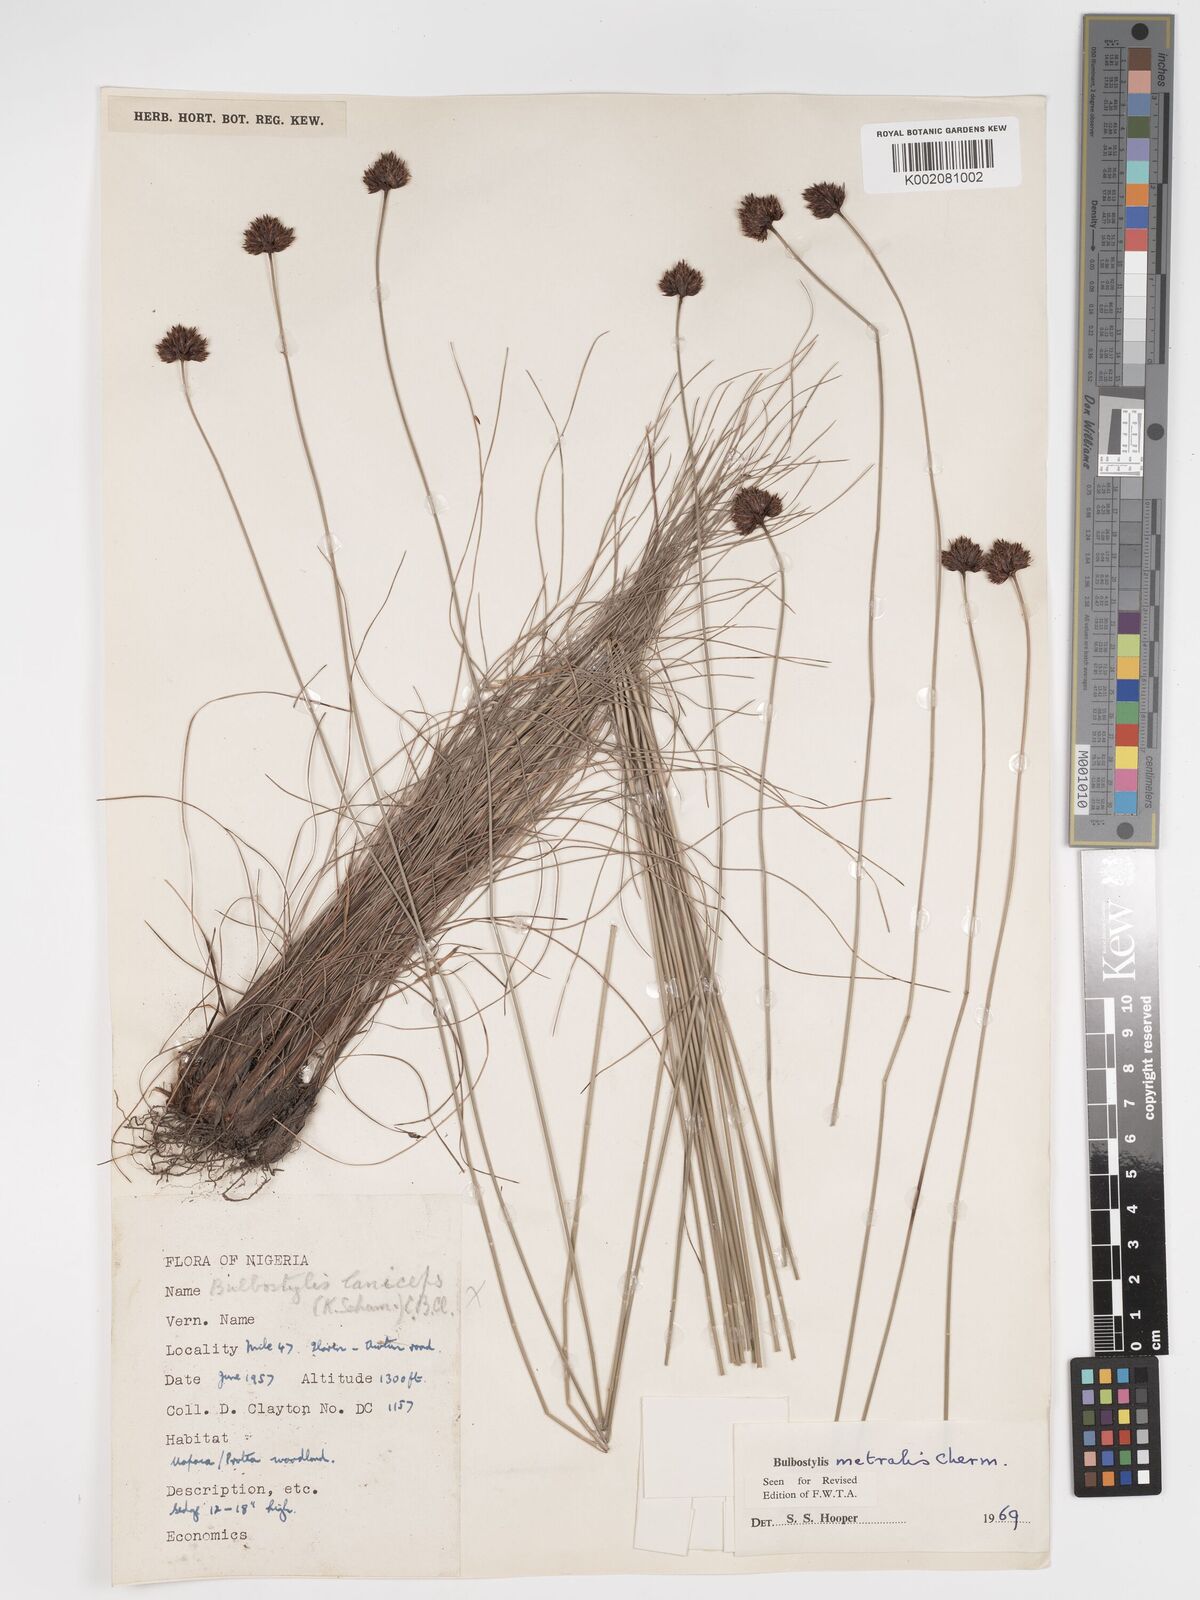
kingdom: Plantae
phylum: Tracheophyta
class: Liliopsida
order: Poales
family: Cyperaceae
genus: Bulbostylis
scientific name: Bulbostylis filamentosa
